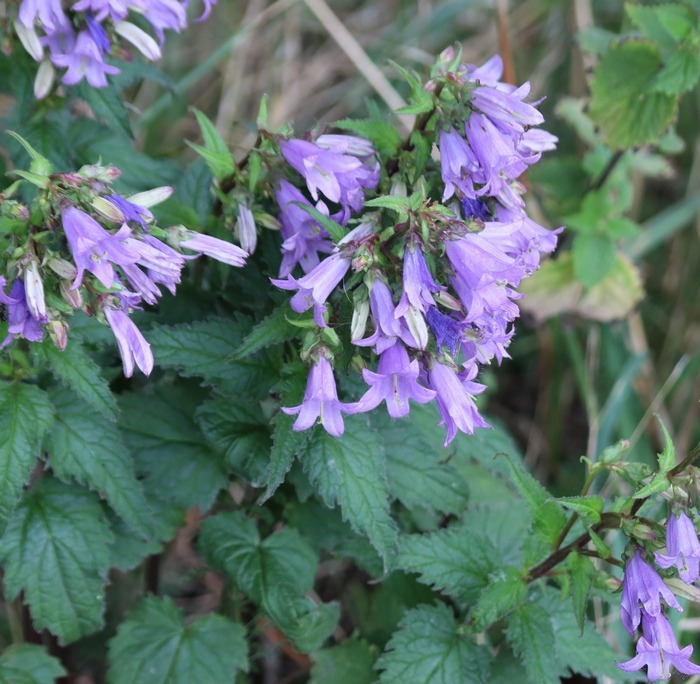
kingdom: Plantae
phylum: Tracheophyta
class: Magnoliopsida
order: Asterales
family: Campanulaceae
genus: Campanula
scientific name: Campanula trachelium
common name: Nælde-klokke
